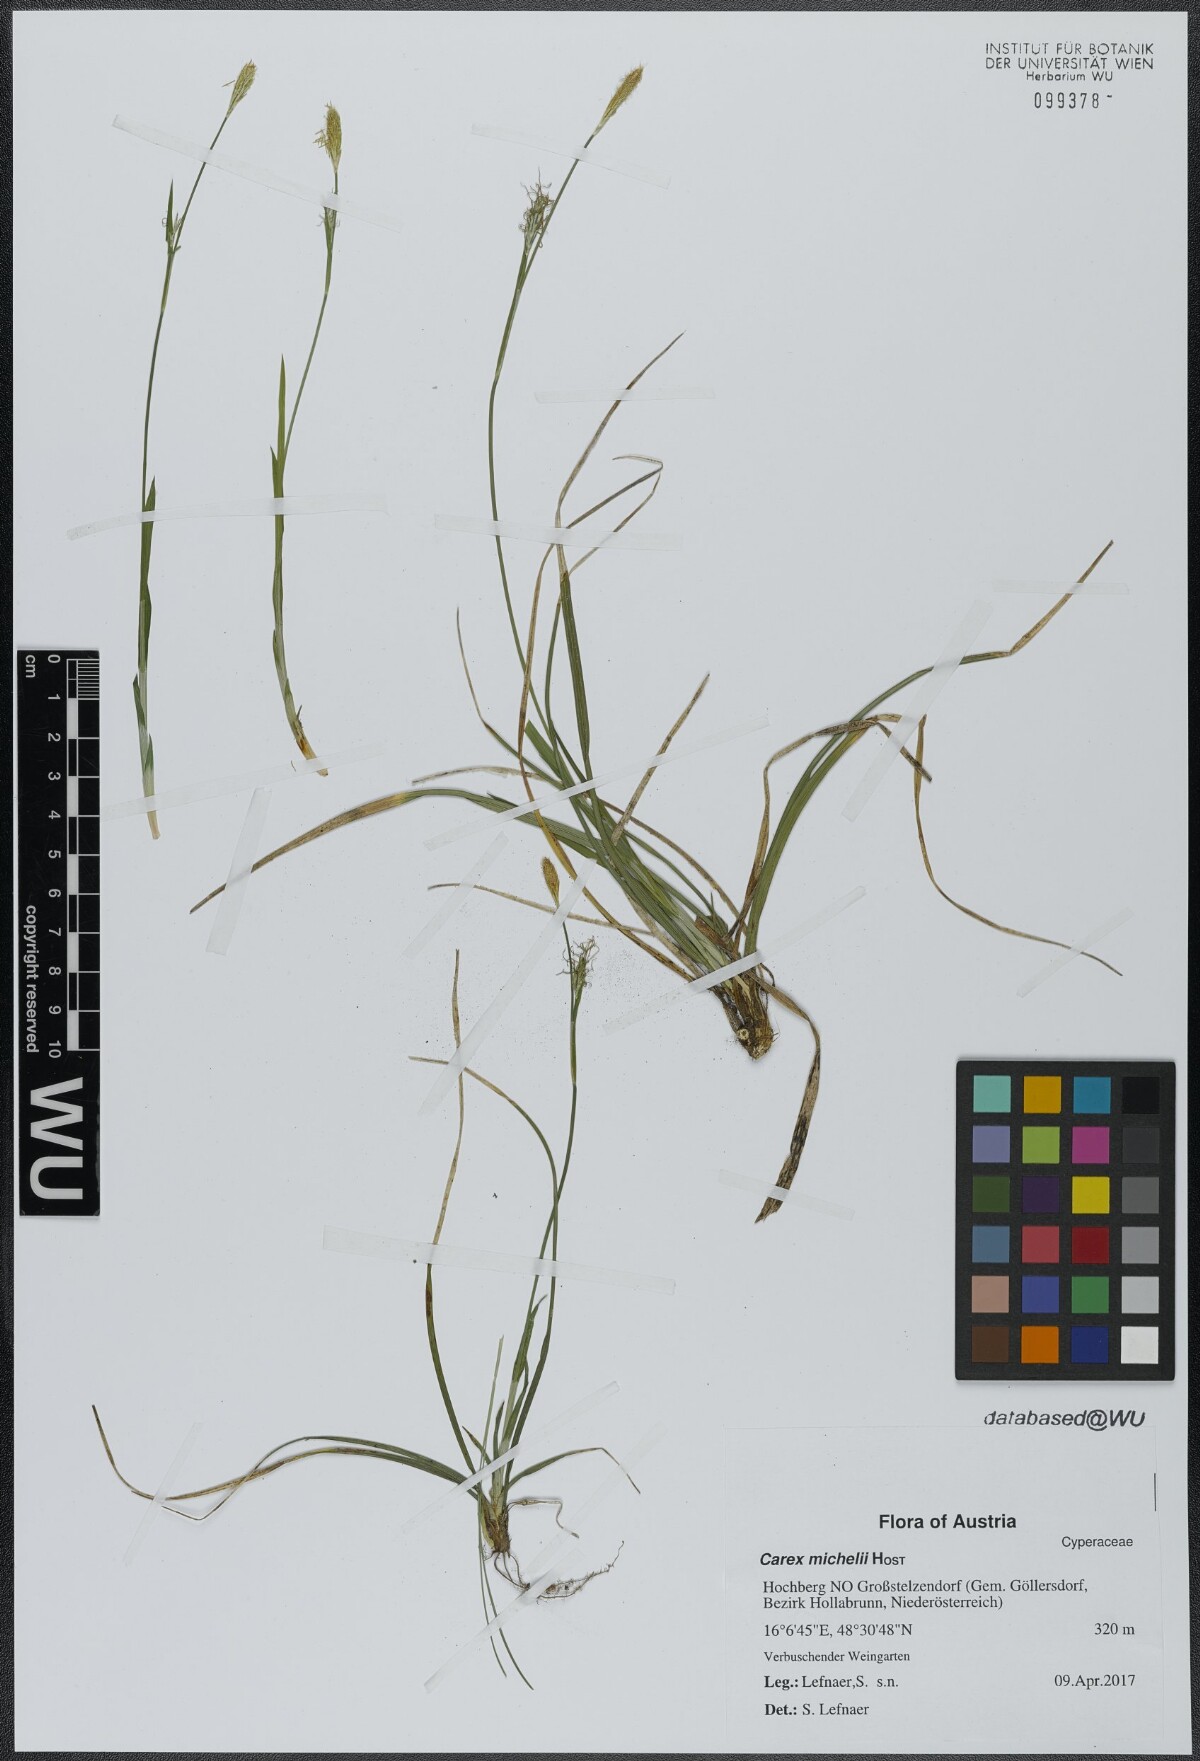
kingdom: Plantae
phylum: Tracheophyta
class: Liliopsida
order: Poales
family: Cyperaceae
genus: Carex
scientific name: Carex michelii
